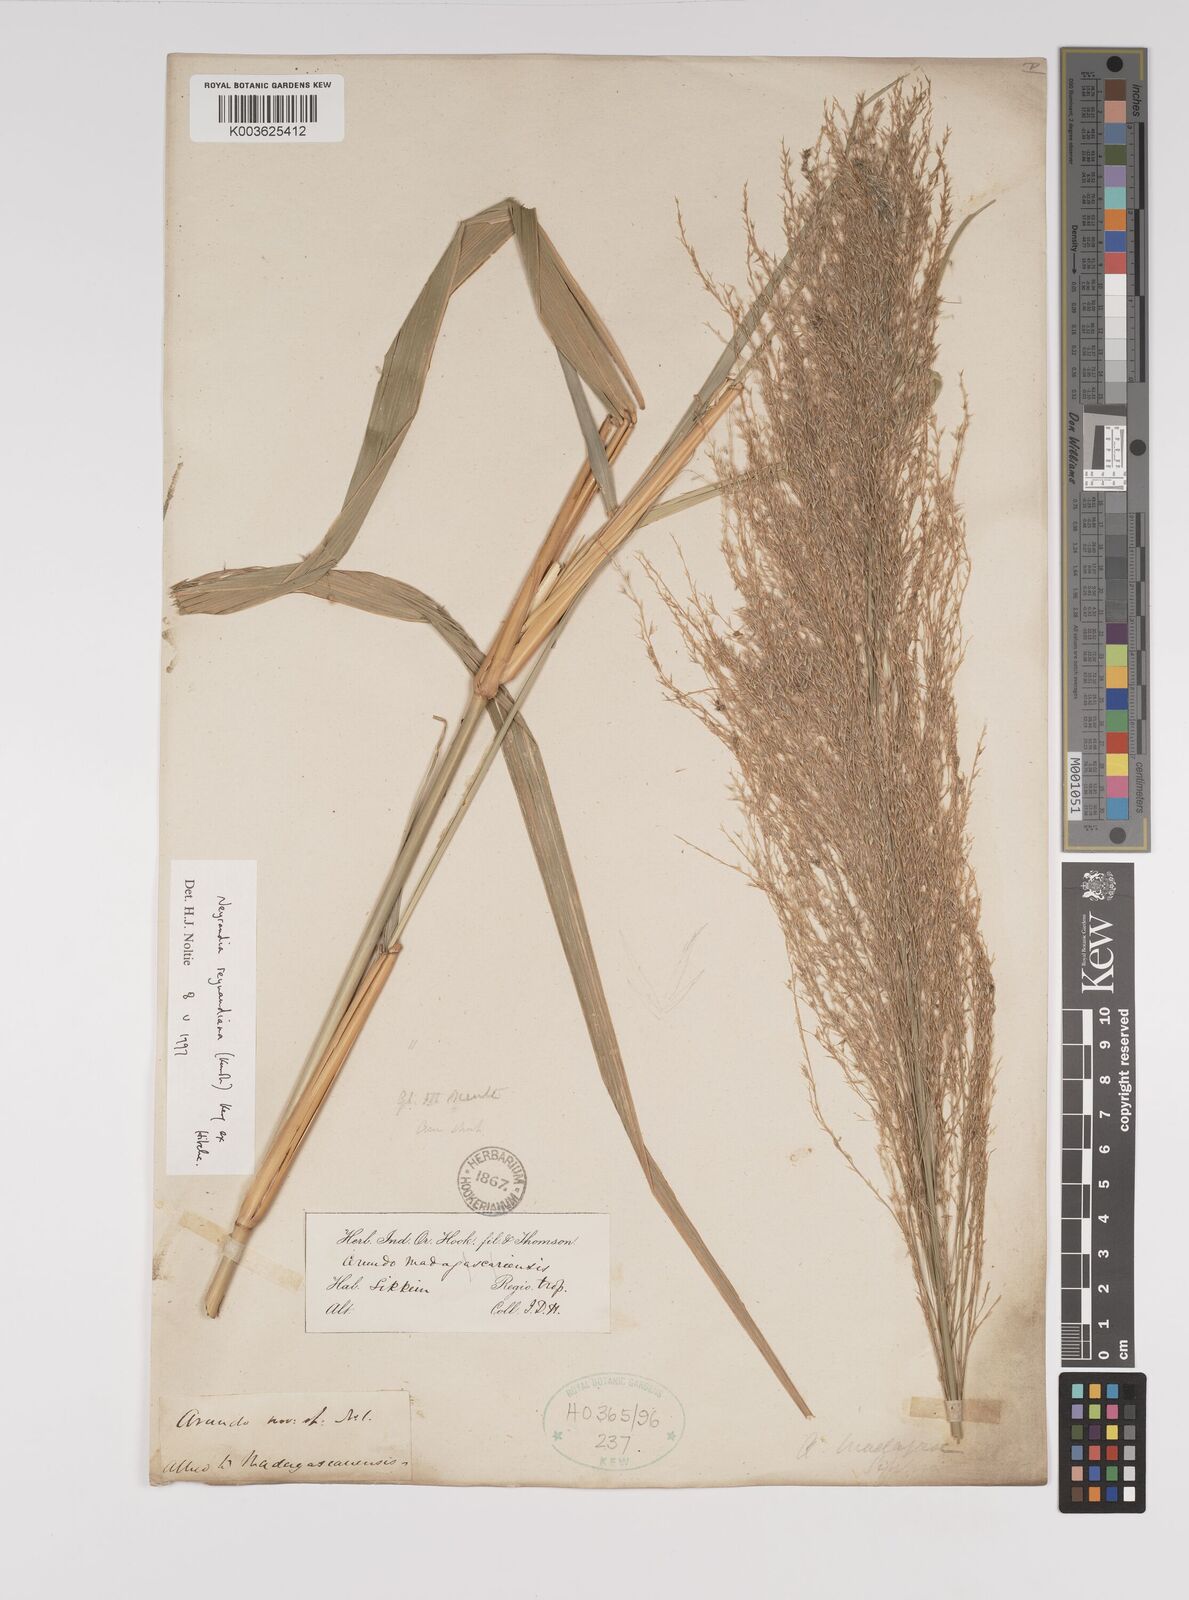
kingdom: Plantae
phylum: Tracheophyta
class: Liliopsida
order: Poales
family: Poaceae
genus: Neyraudia
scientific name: Neyraudia reynaudiana
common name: Silkreed
